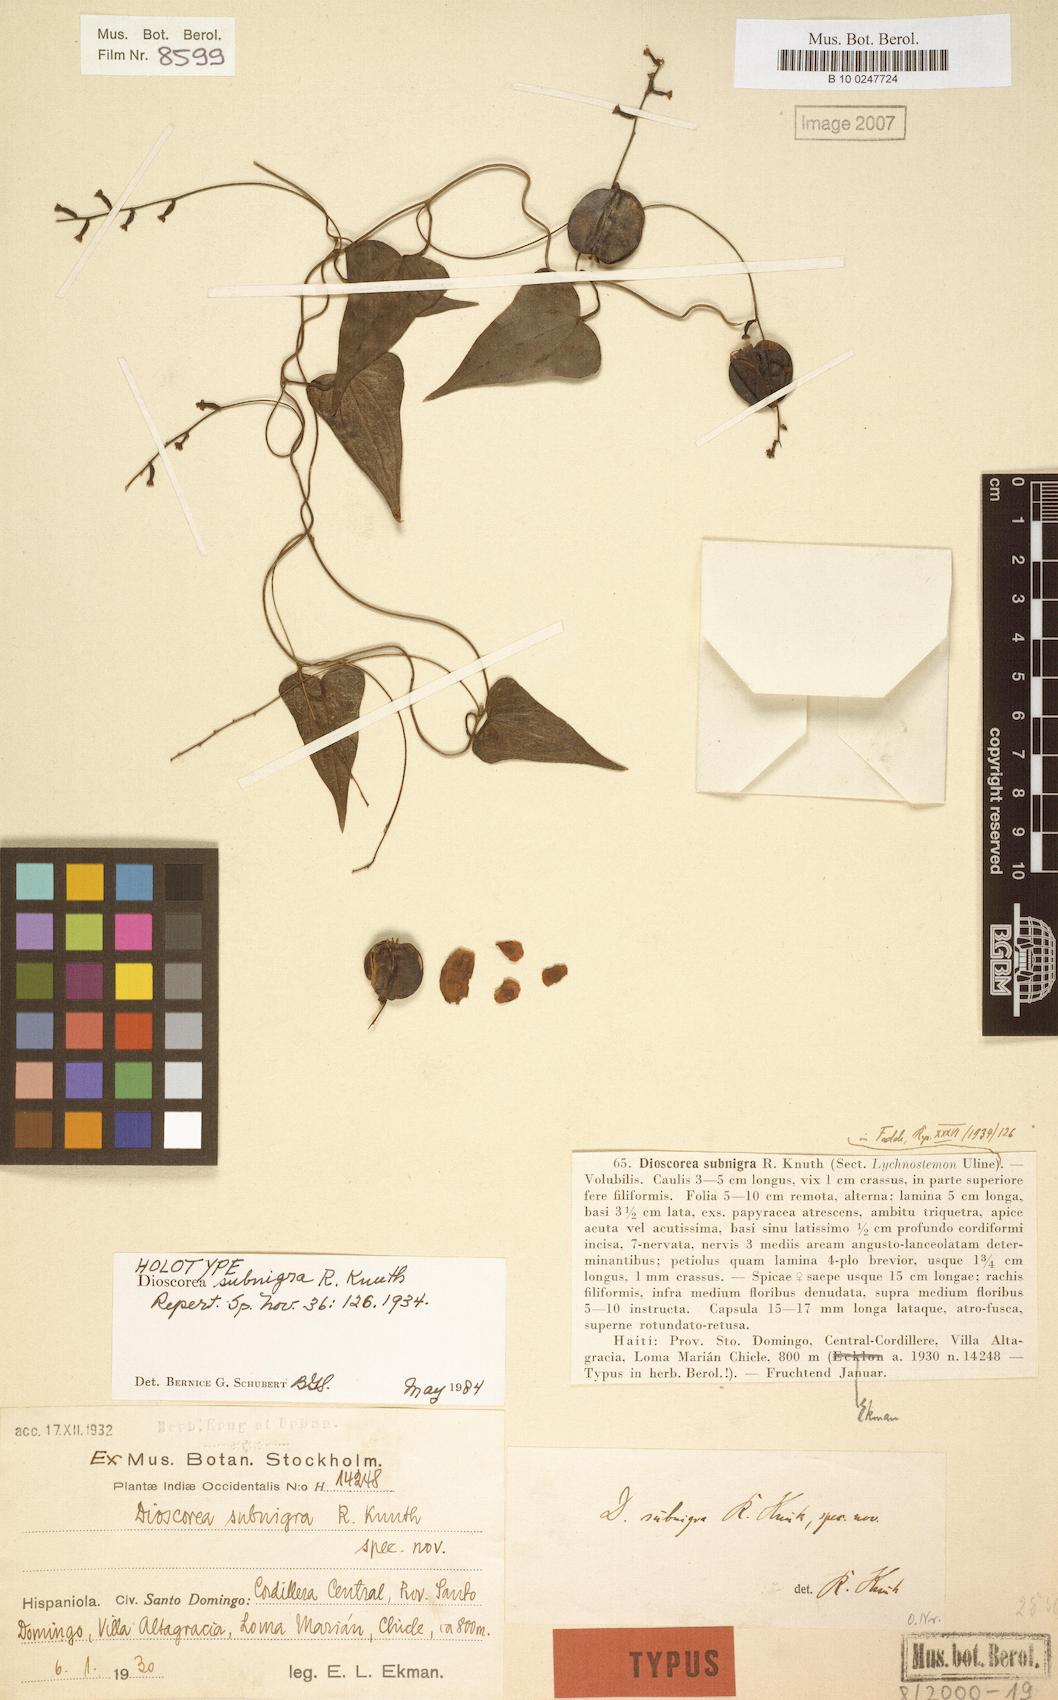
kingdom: Plantae
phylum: Tracheophyta
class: Liliopsida
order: Dioscoreales
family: Dioscoreaceae
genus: Dioscorea
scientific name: Dioscorea subnigra
